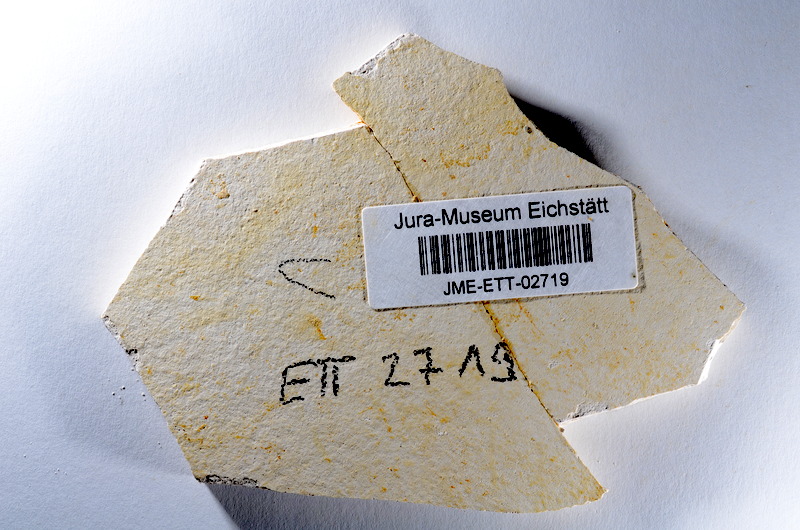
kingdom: Animalia
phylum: Chordata
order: Salmoniformes
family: Orthogonikleithridae
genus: Orthogonikleithrus
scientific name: Orthogonikleithrus hoelli
